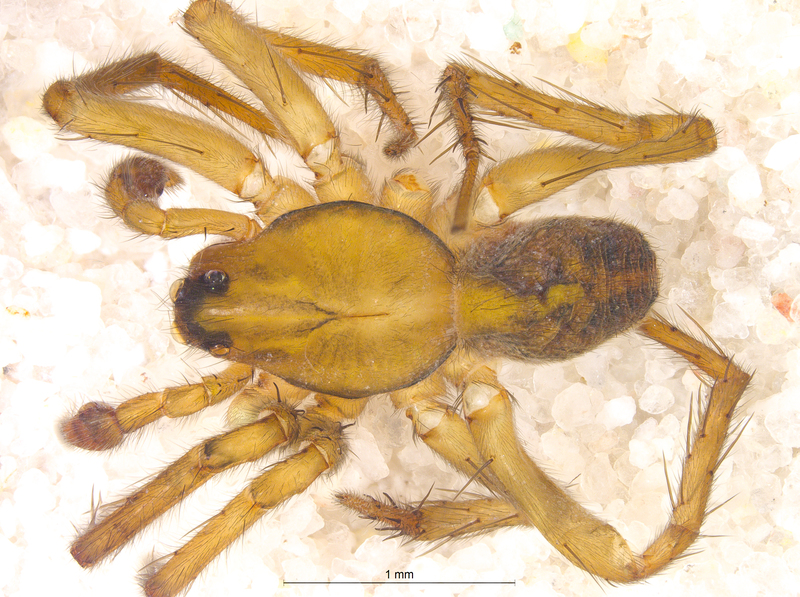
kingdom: Animalia
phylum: Arthropoda
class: Arachnida
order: Araneae
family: Lycosidae
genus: Piratula
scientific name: Piratula uliginosa
